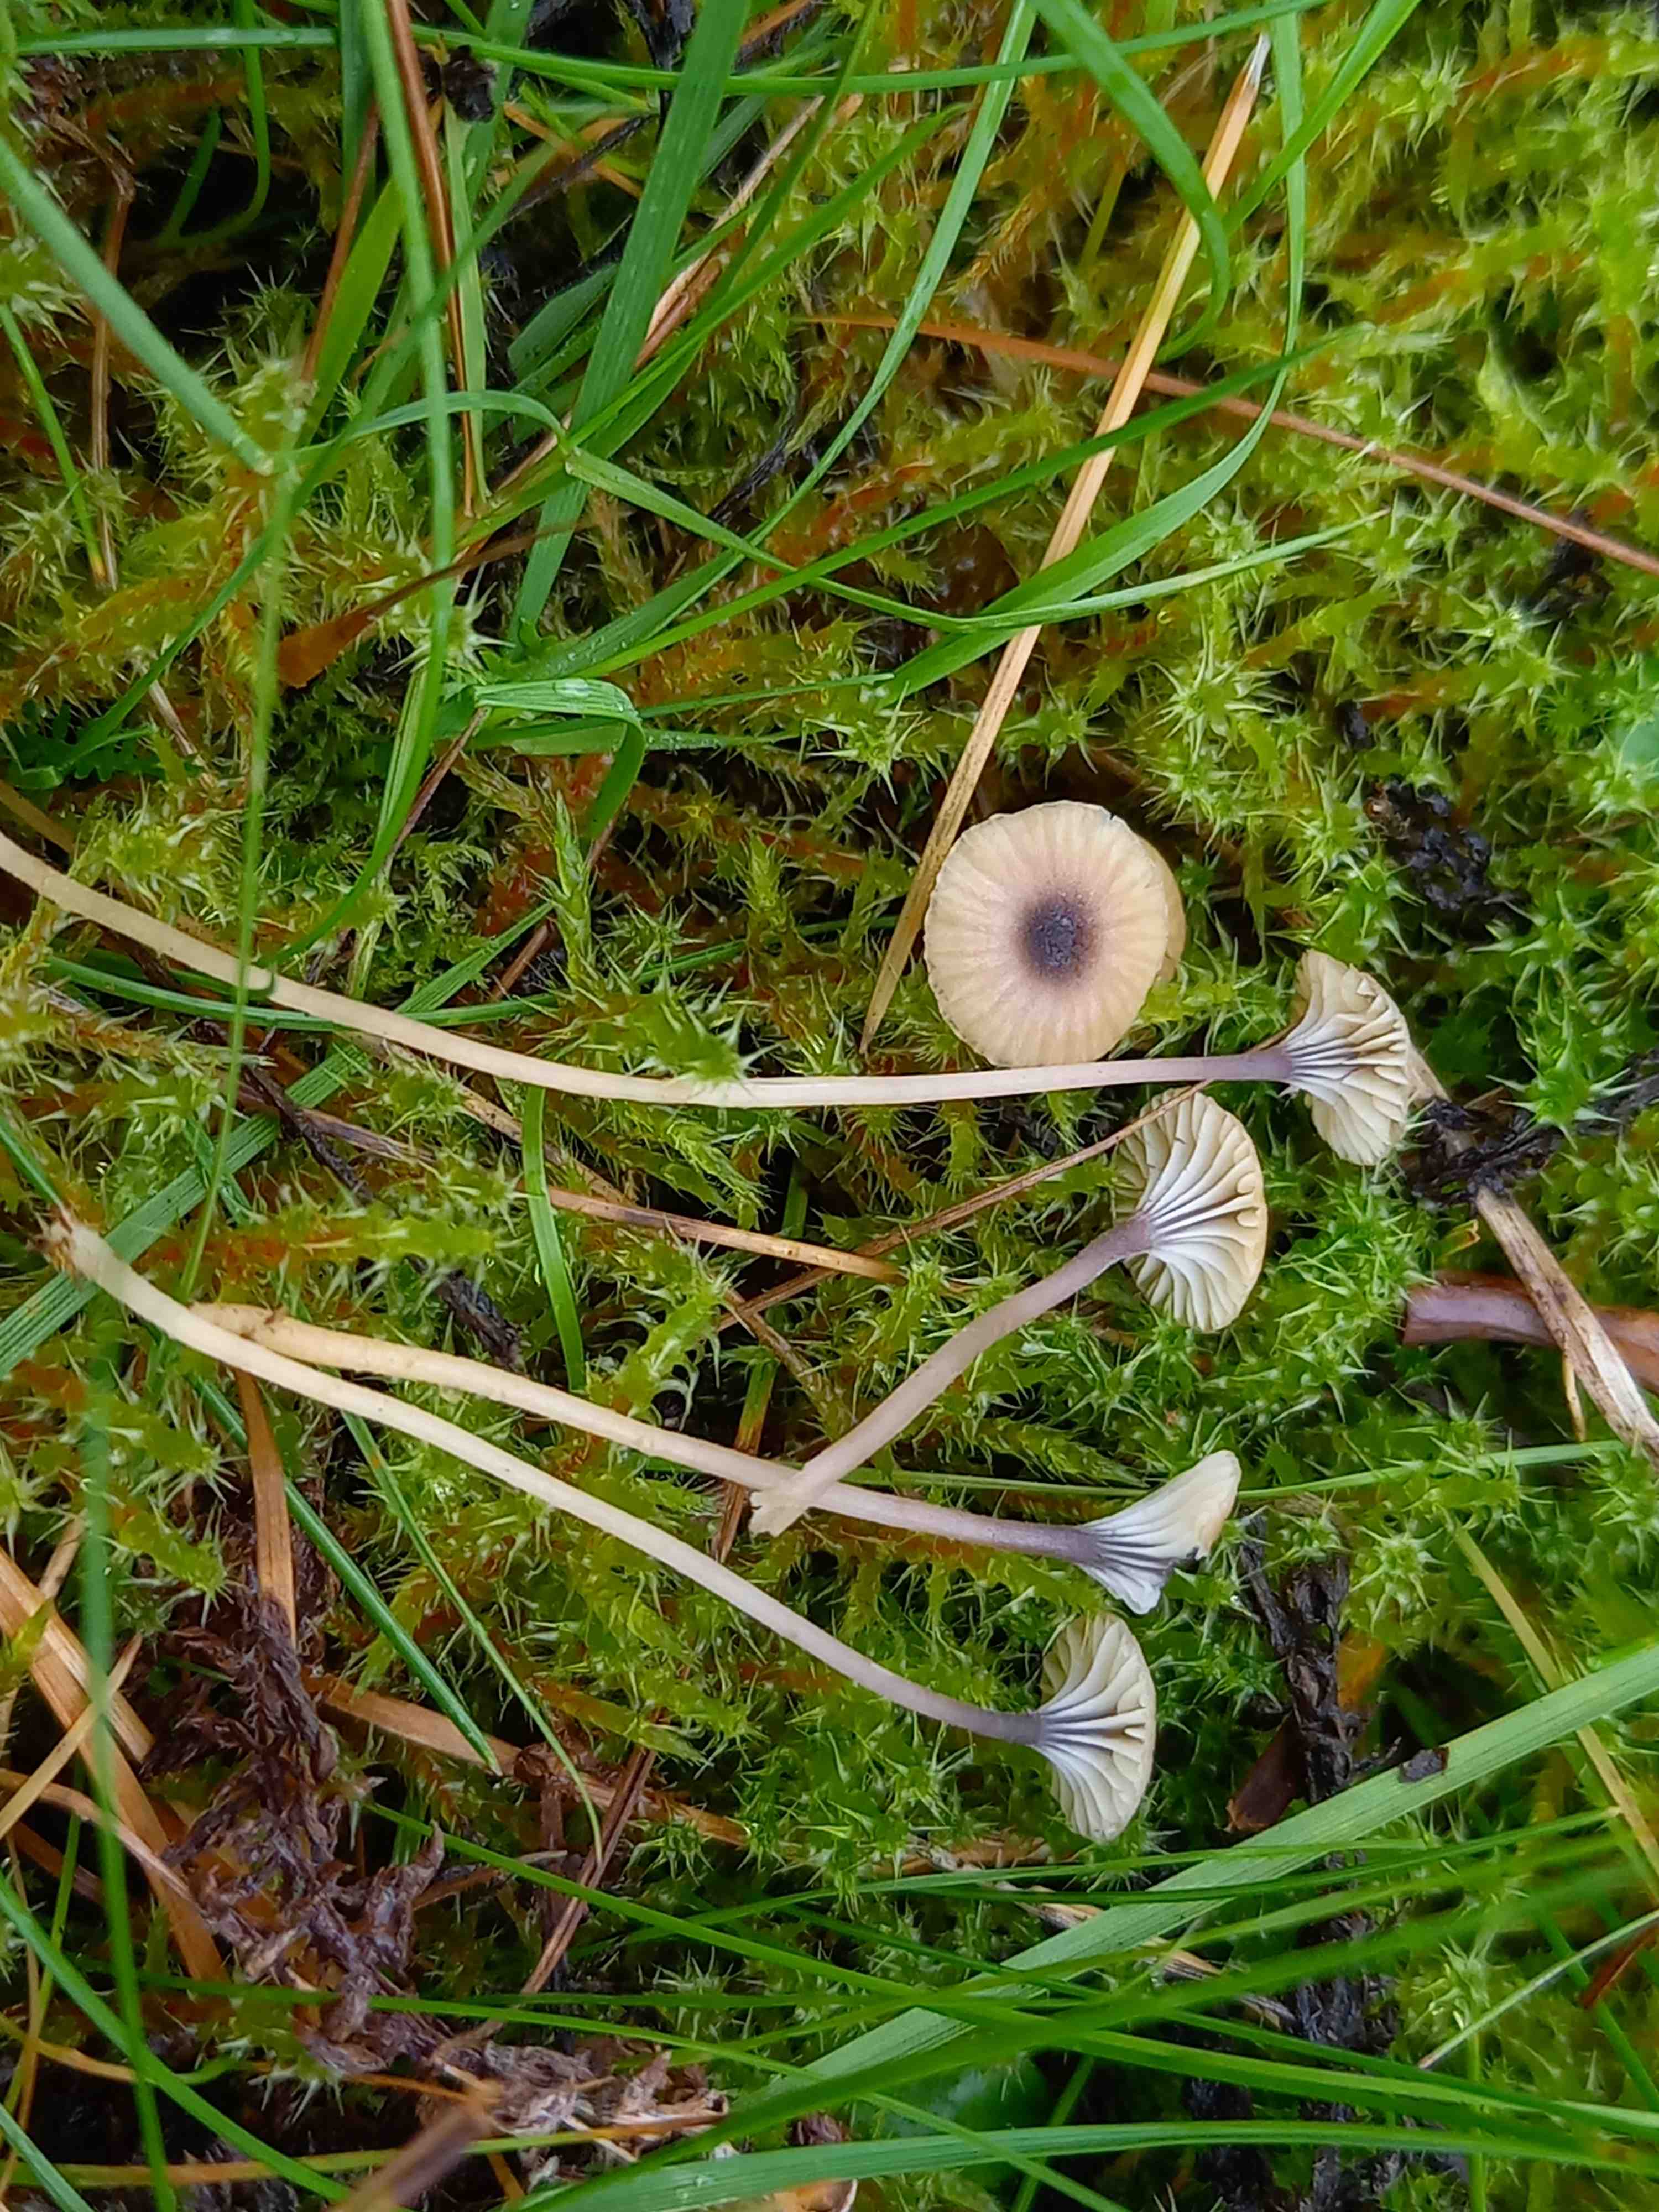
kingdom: Fungi
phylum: Basidiomycota
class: Agaricomycetes
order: Hymenochaetales
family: Rickenellaceae
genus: Rickenella
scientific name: Rickenella swartzii
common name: finstokket mosnavlehat
